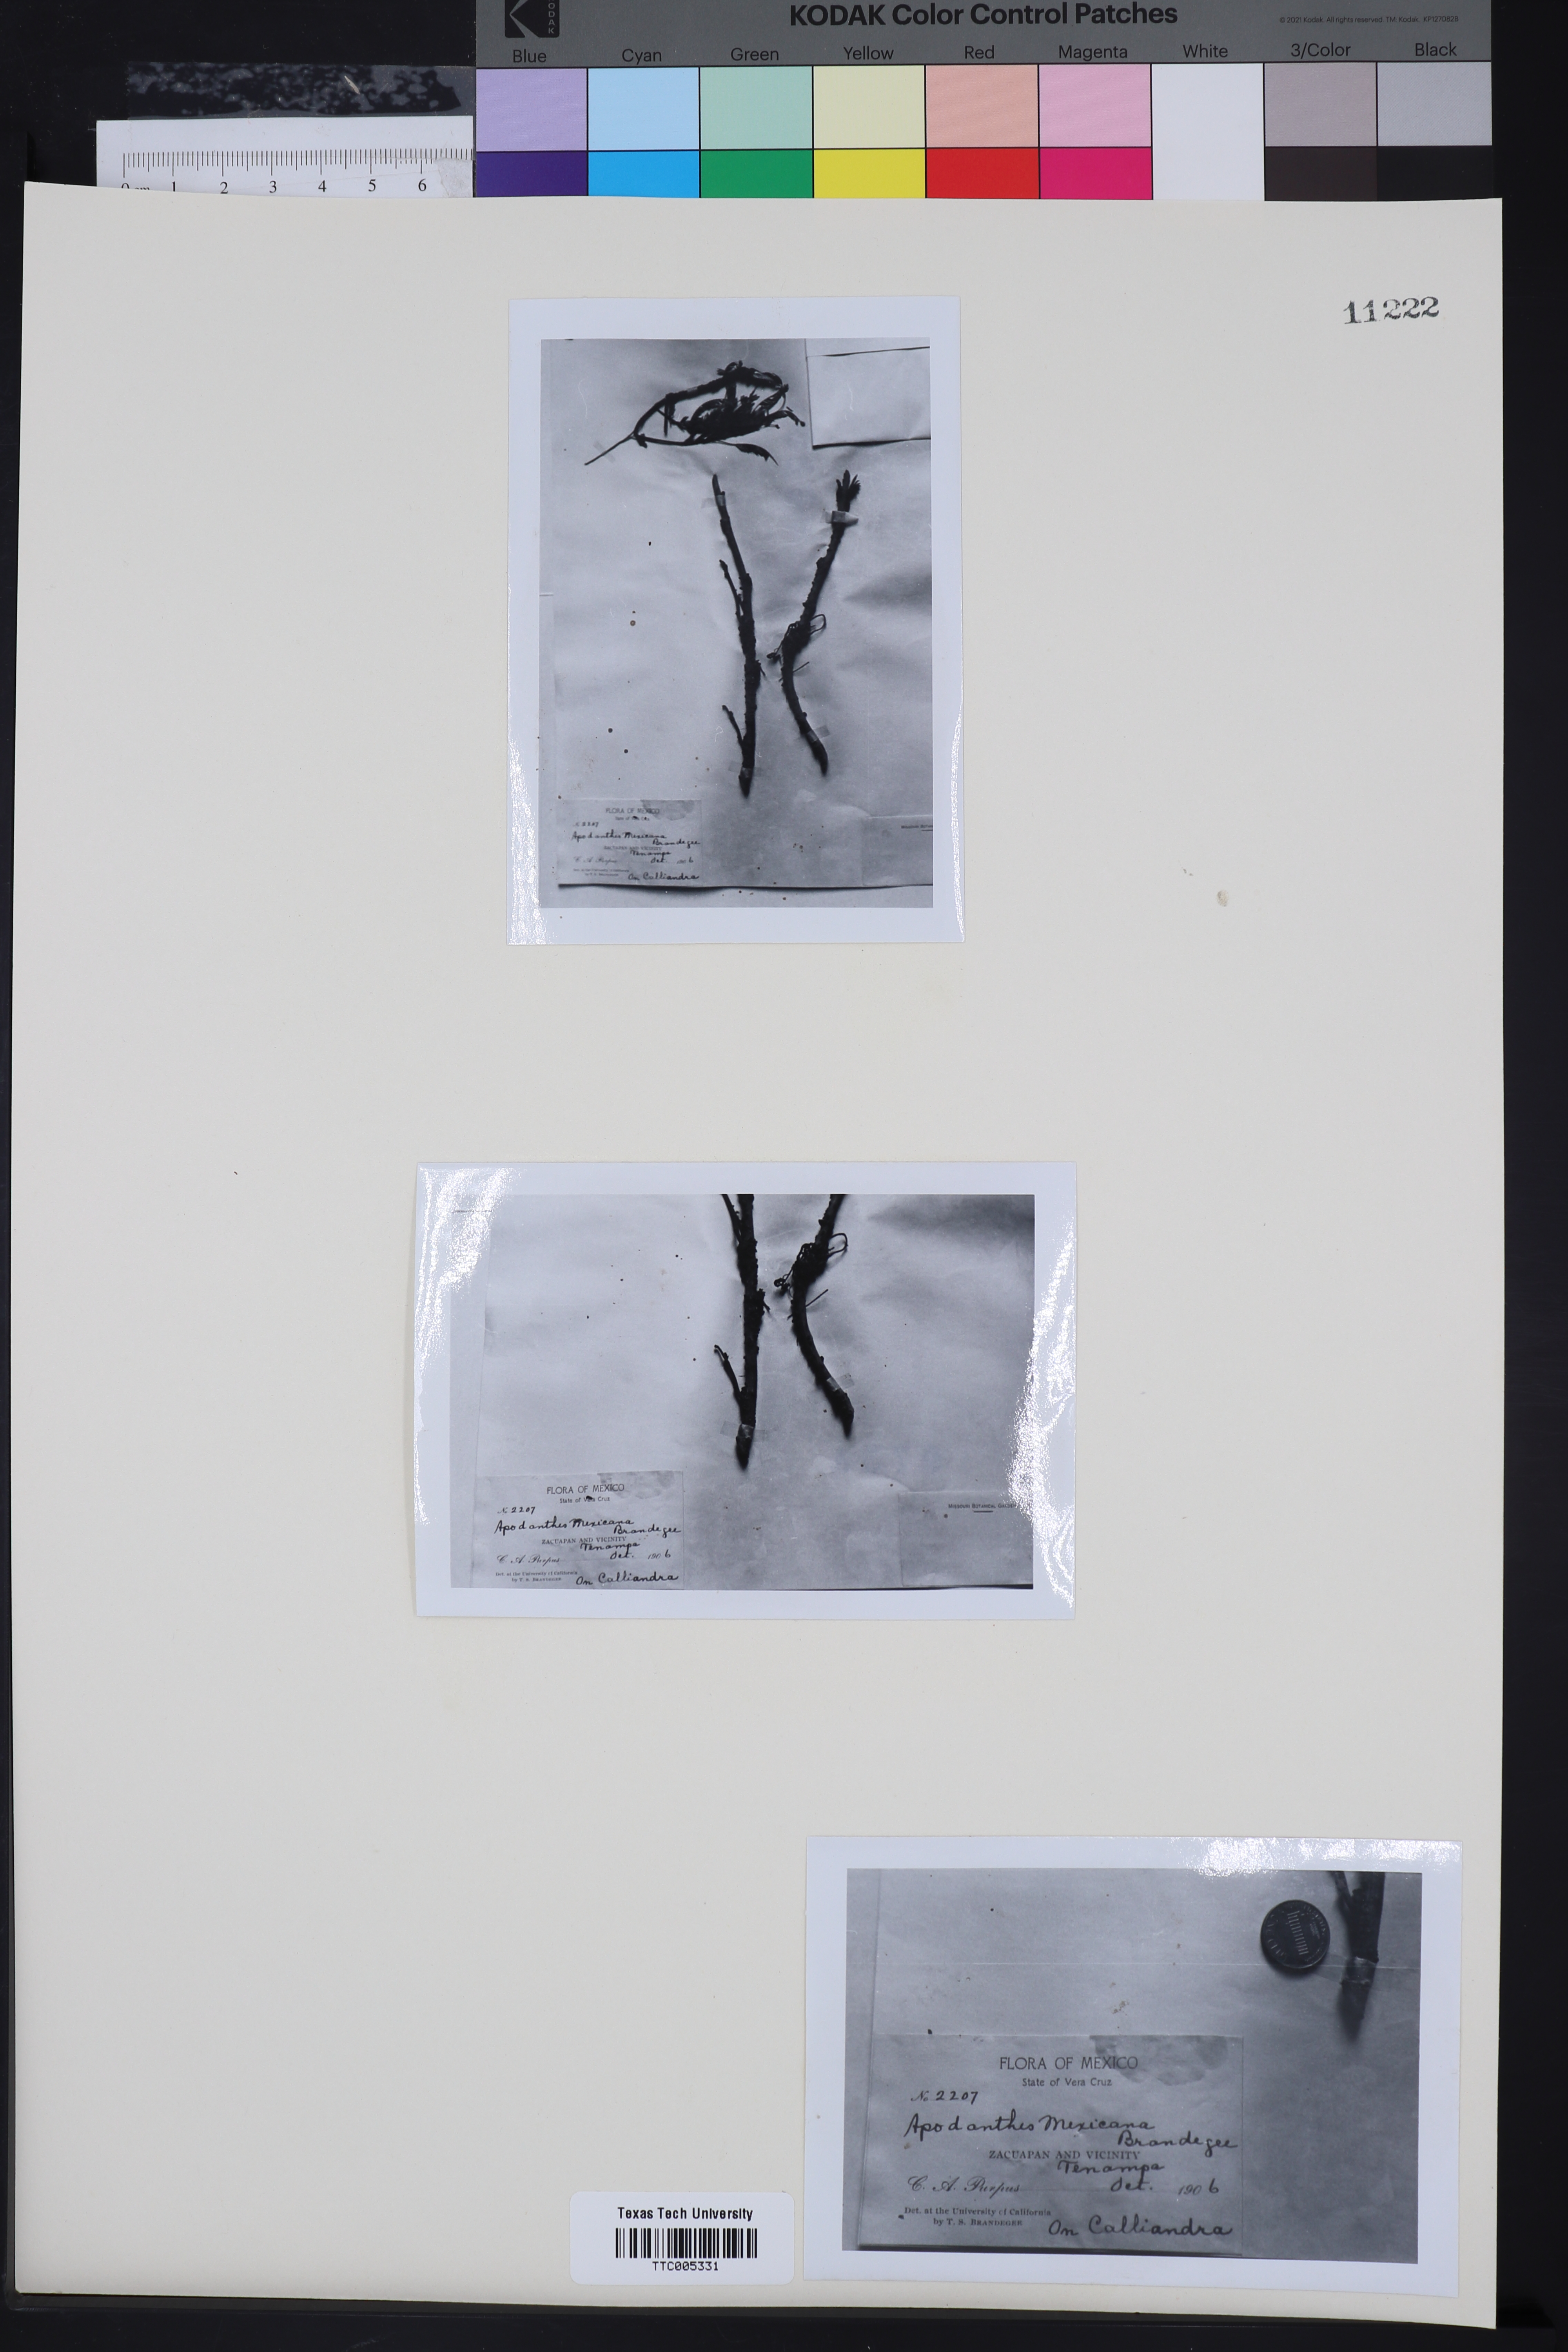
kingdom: Plantae
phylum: Tracheophyta
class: Magnoliopsida
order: Cucurbitales
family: Apodanthaceae
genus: Pilostyles
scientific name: Pilostyles mexicana
